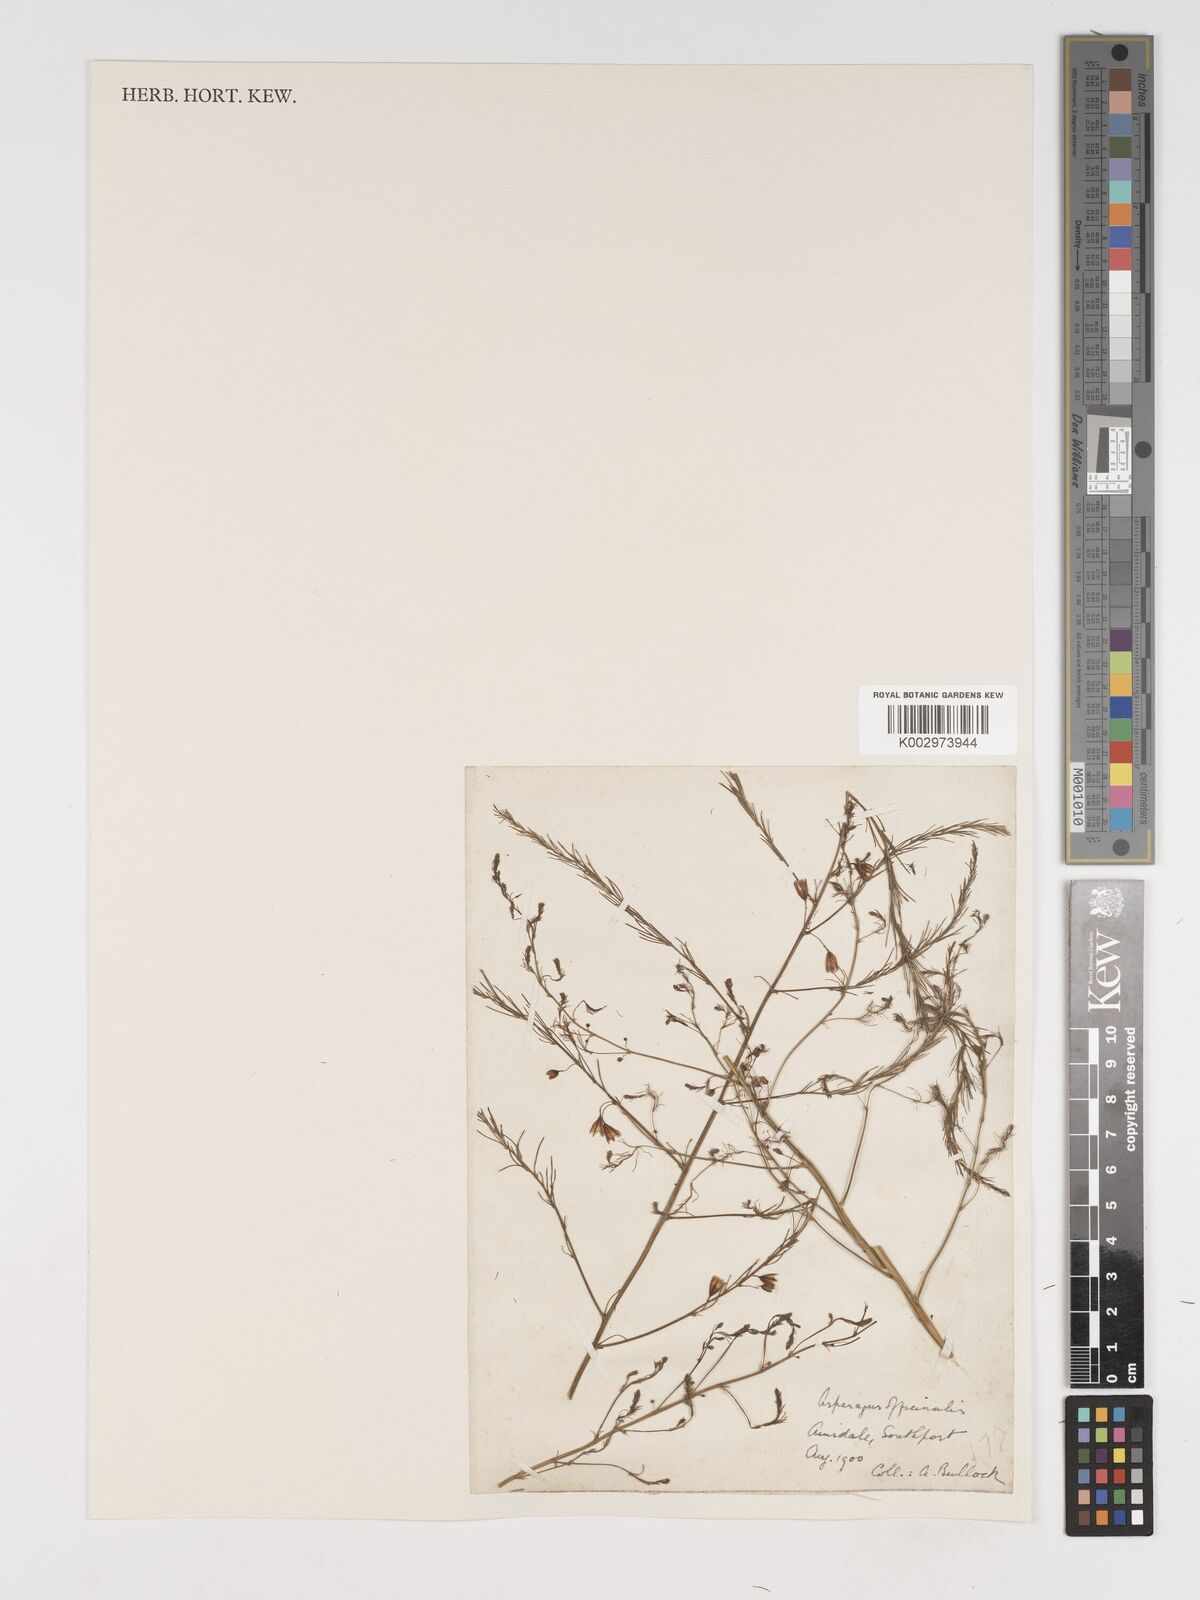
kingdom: Plantae
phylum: Tracheophyta
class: Liliopsida
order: Asparagales
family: Asparagaceae
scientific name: Asparagaceae
